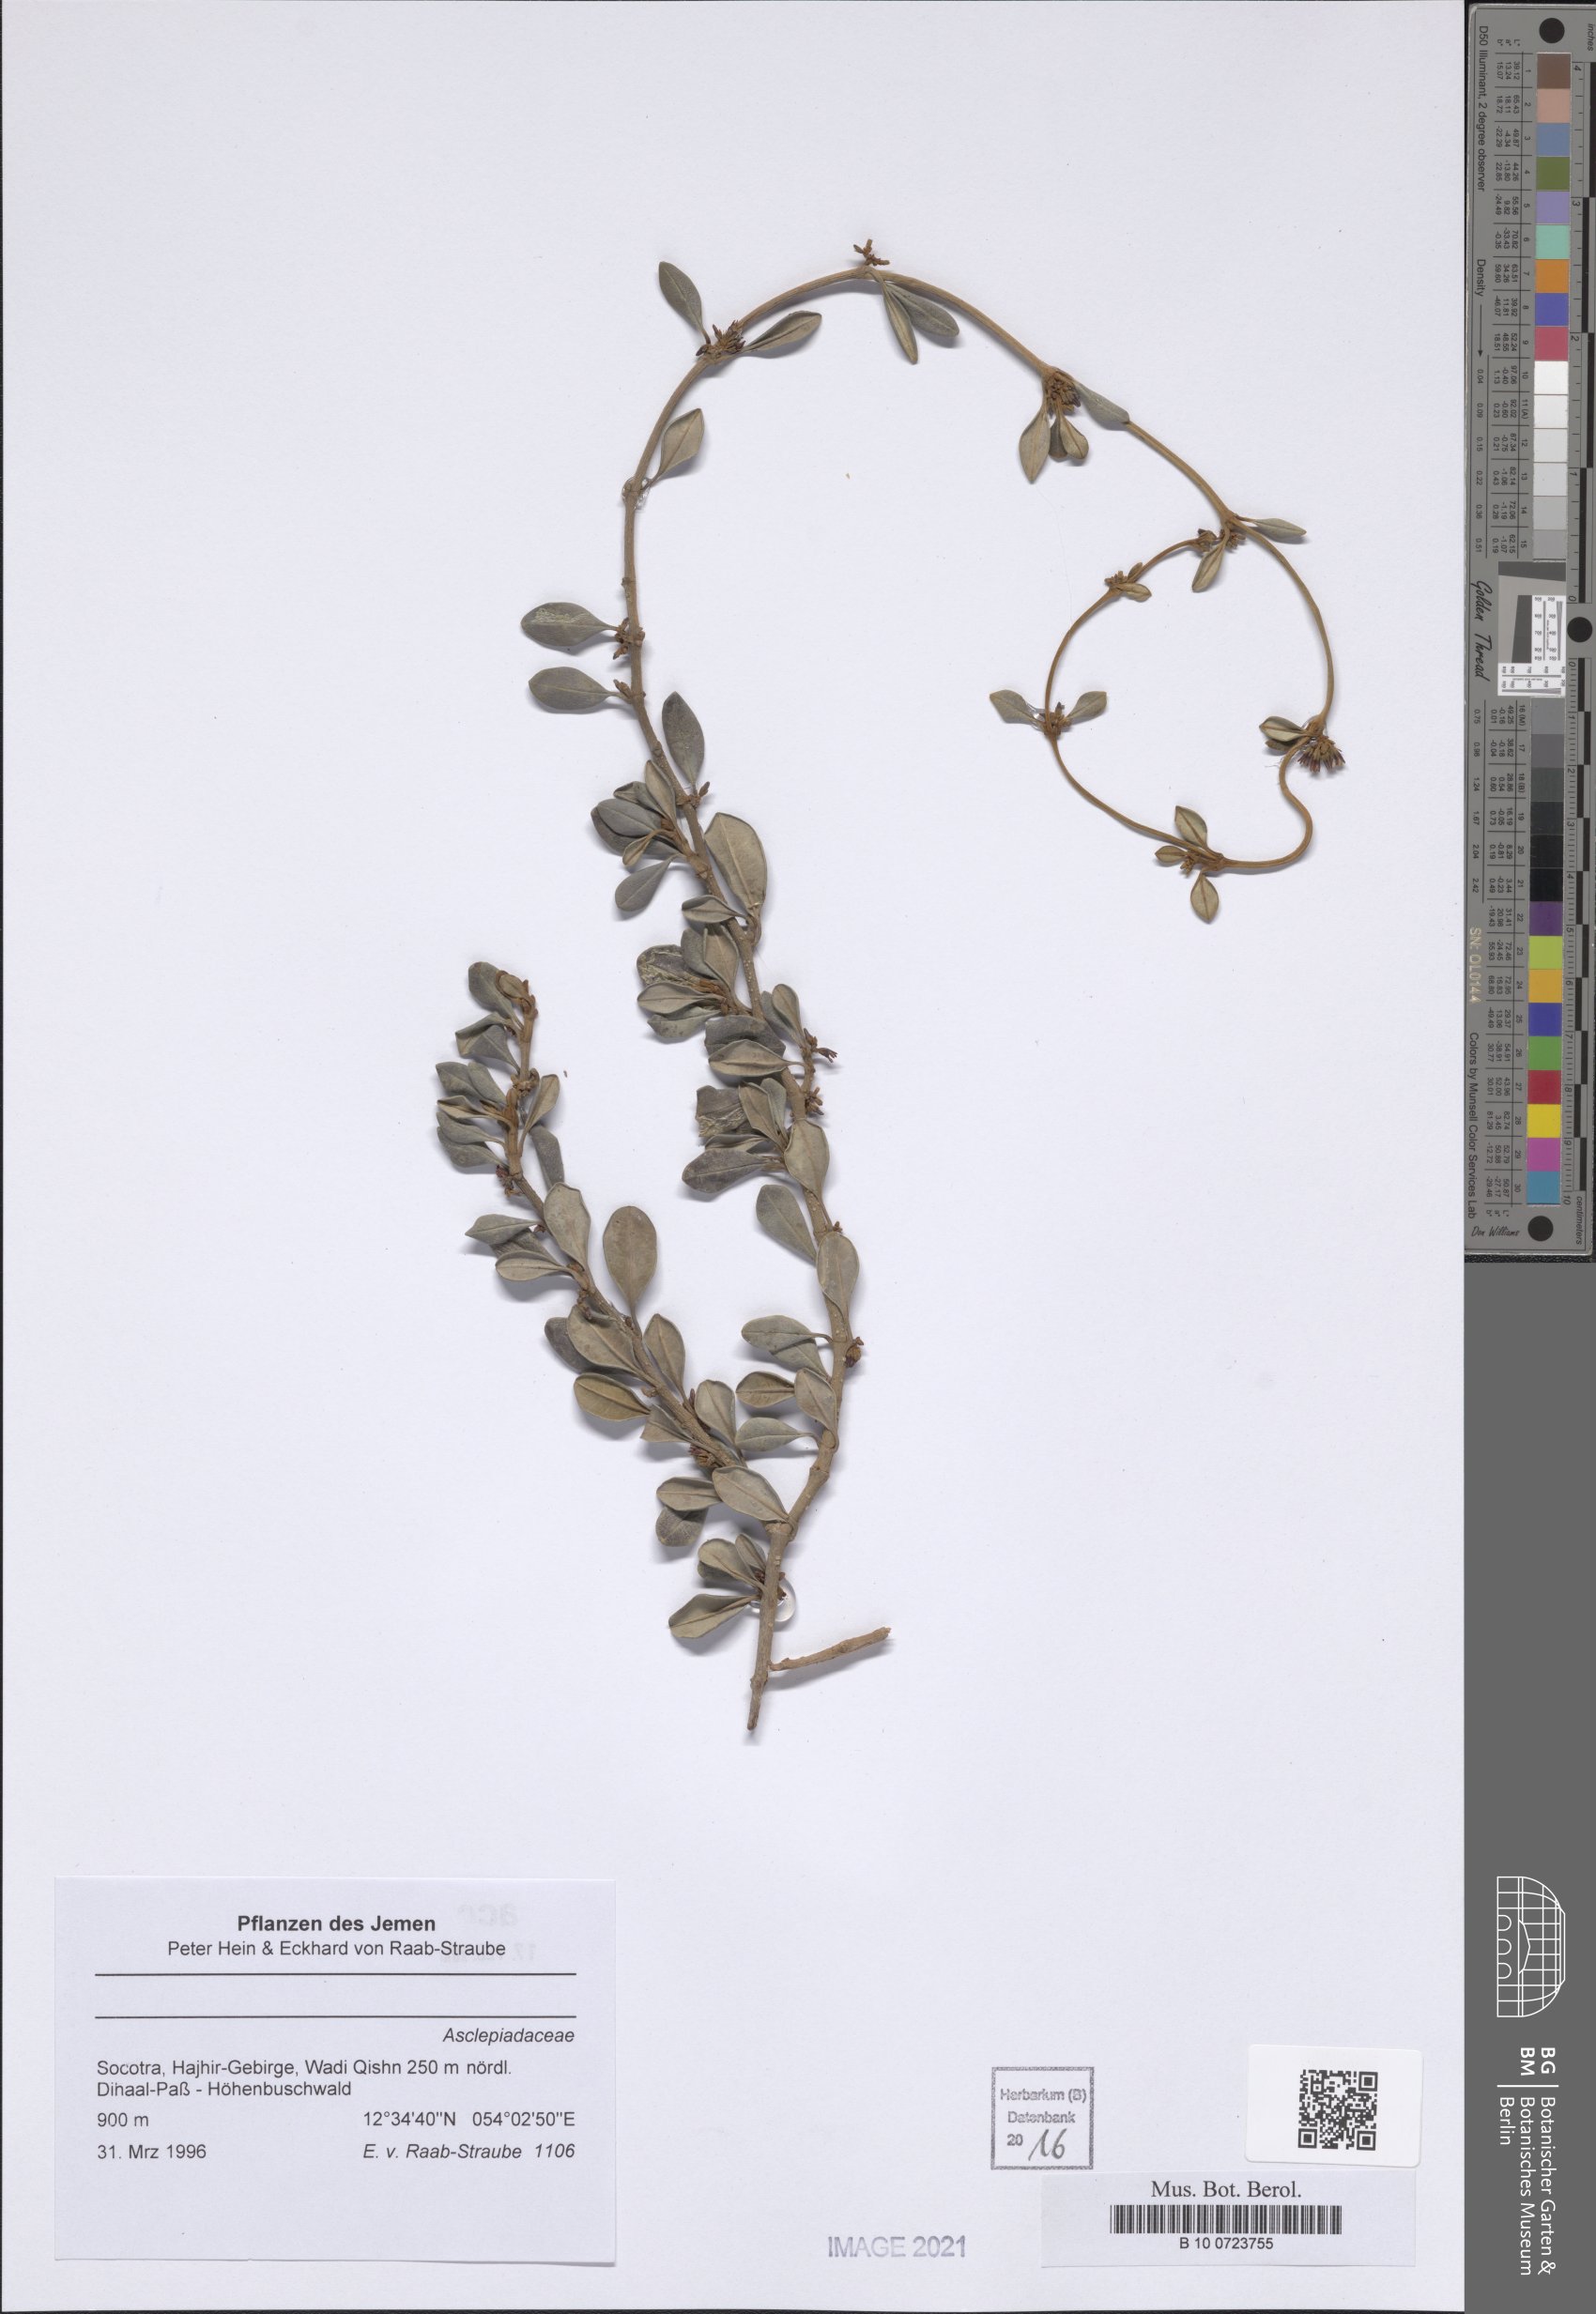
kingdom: Plantae
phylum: Tracheophyta
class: Magnoliopsida
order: Gentianales
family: Apocynaceae
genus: Cryptolepis
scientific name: Cryptolepis volubilis
